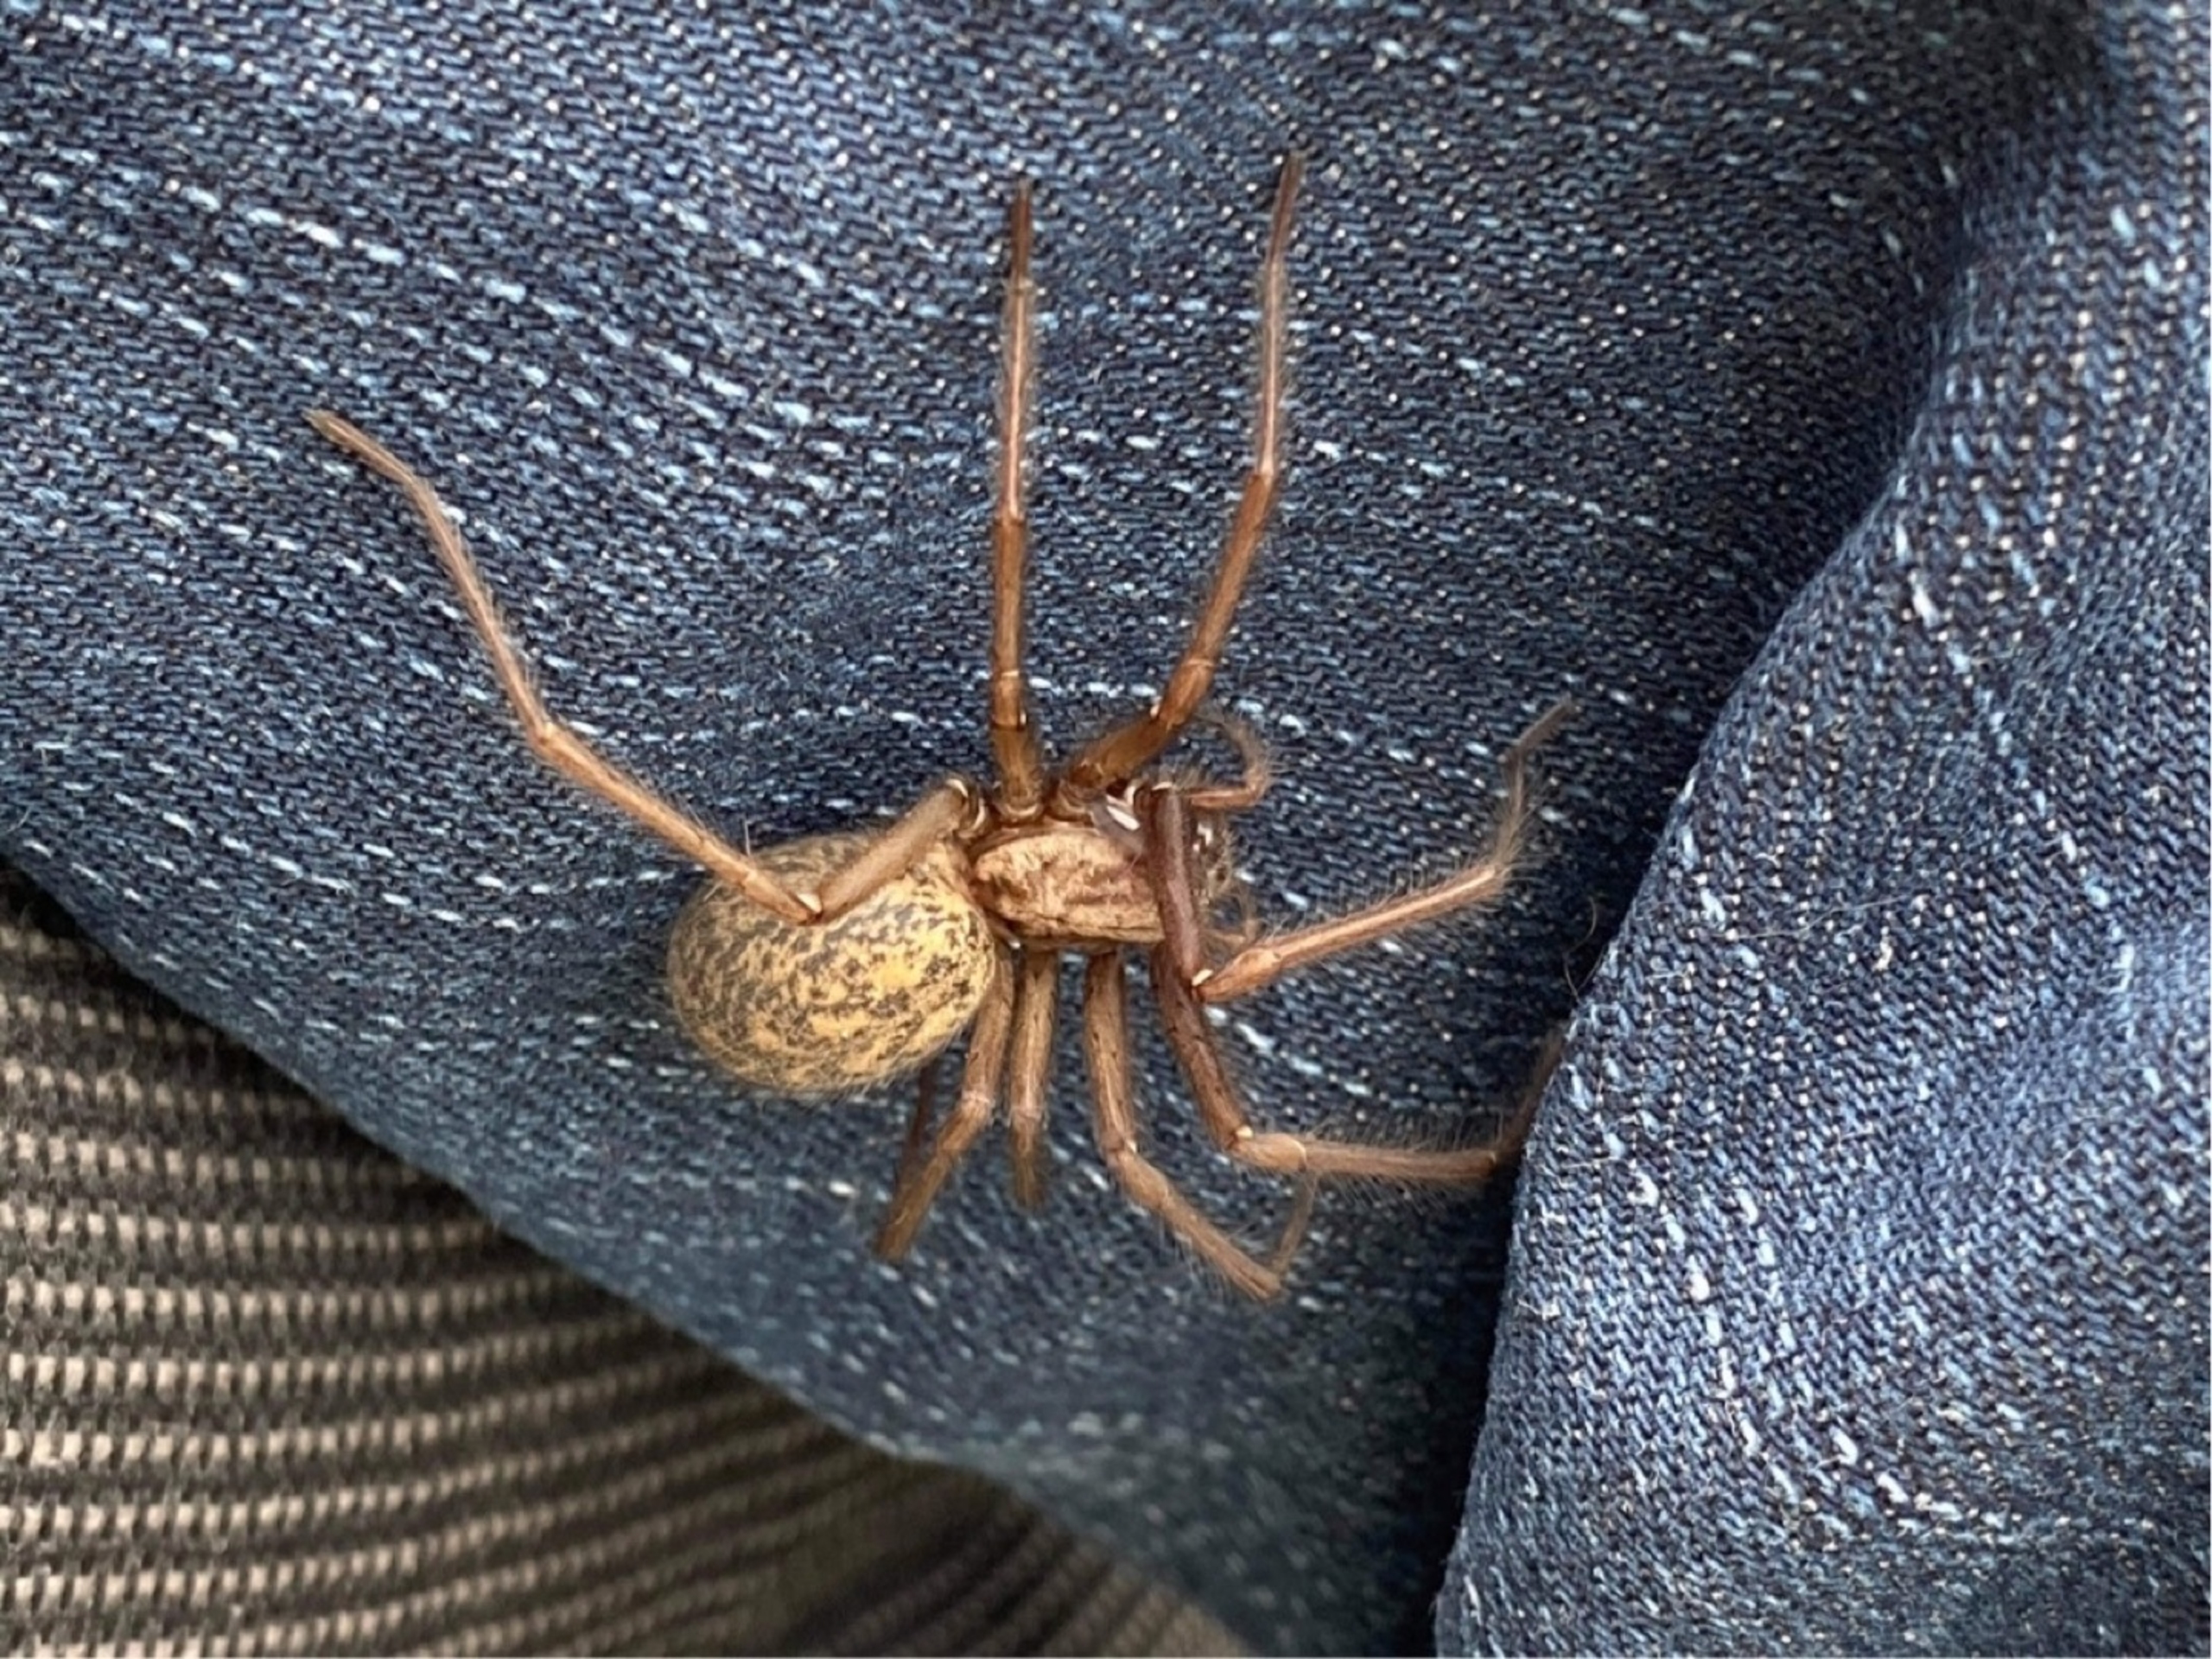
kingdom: Animalia
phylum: Arthropoda
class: Arachnida
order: Araneae
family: Agelenidae
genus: Eratigena
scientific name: Eratigena atrica
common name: Stor husedderkop
